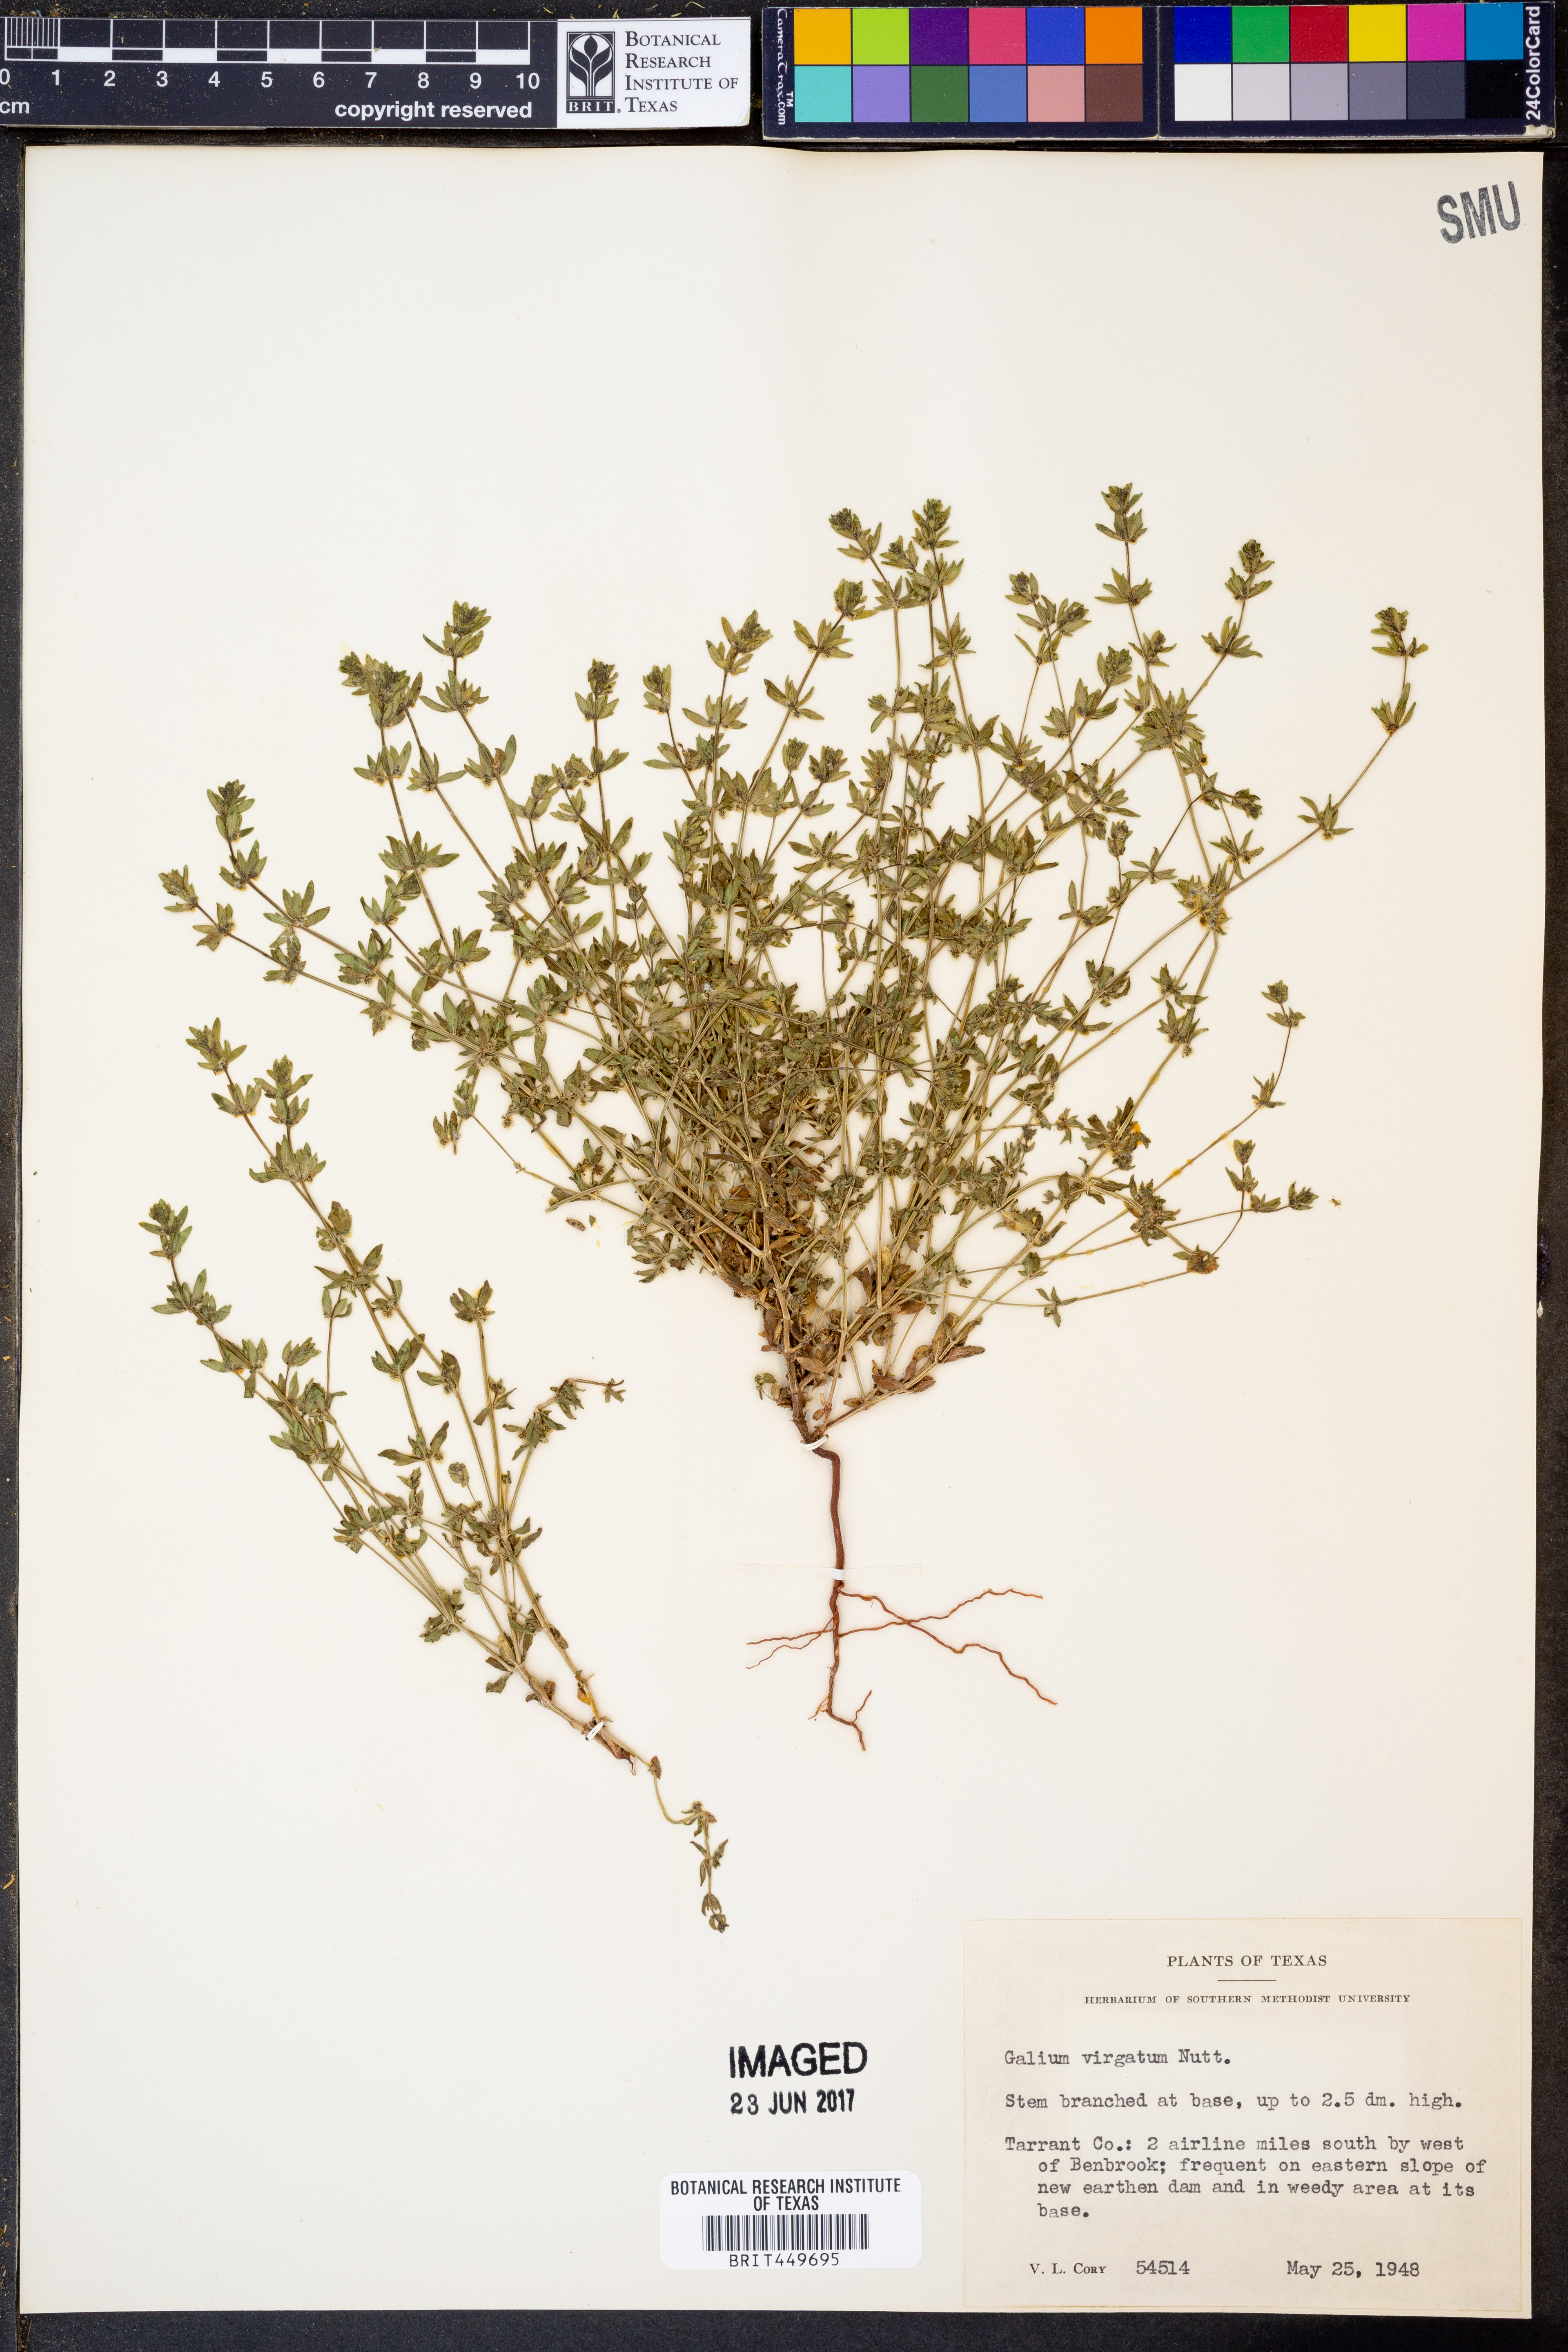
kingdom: Plantae
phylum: Tracheophyta
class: Magnoliopsida
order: Gentianales
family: Rubiaceae
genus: Galium
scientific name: Galium virgatum
